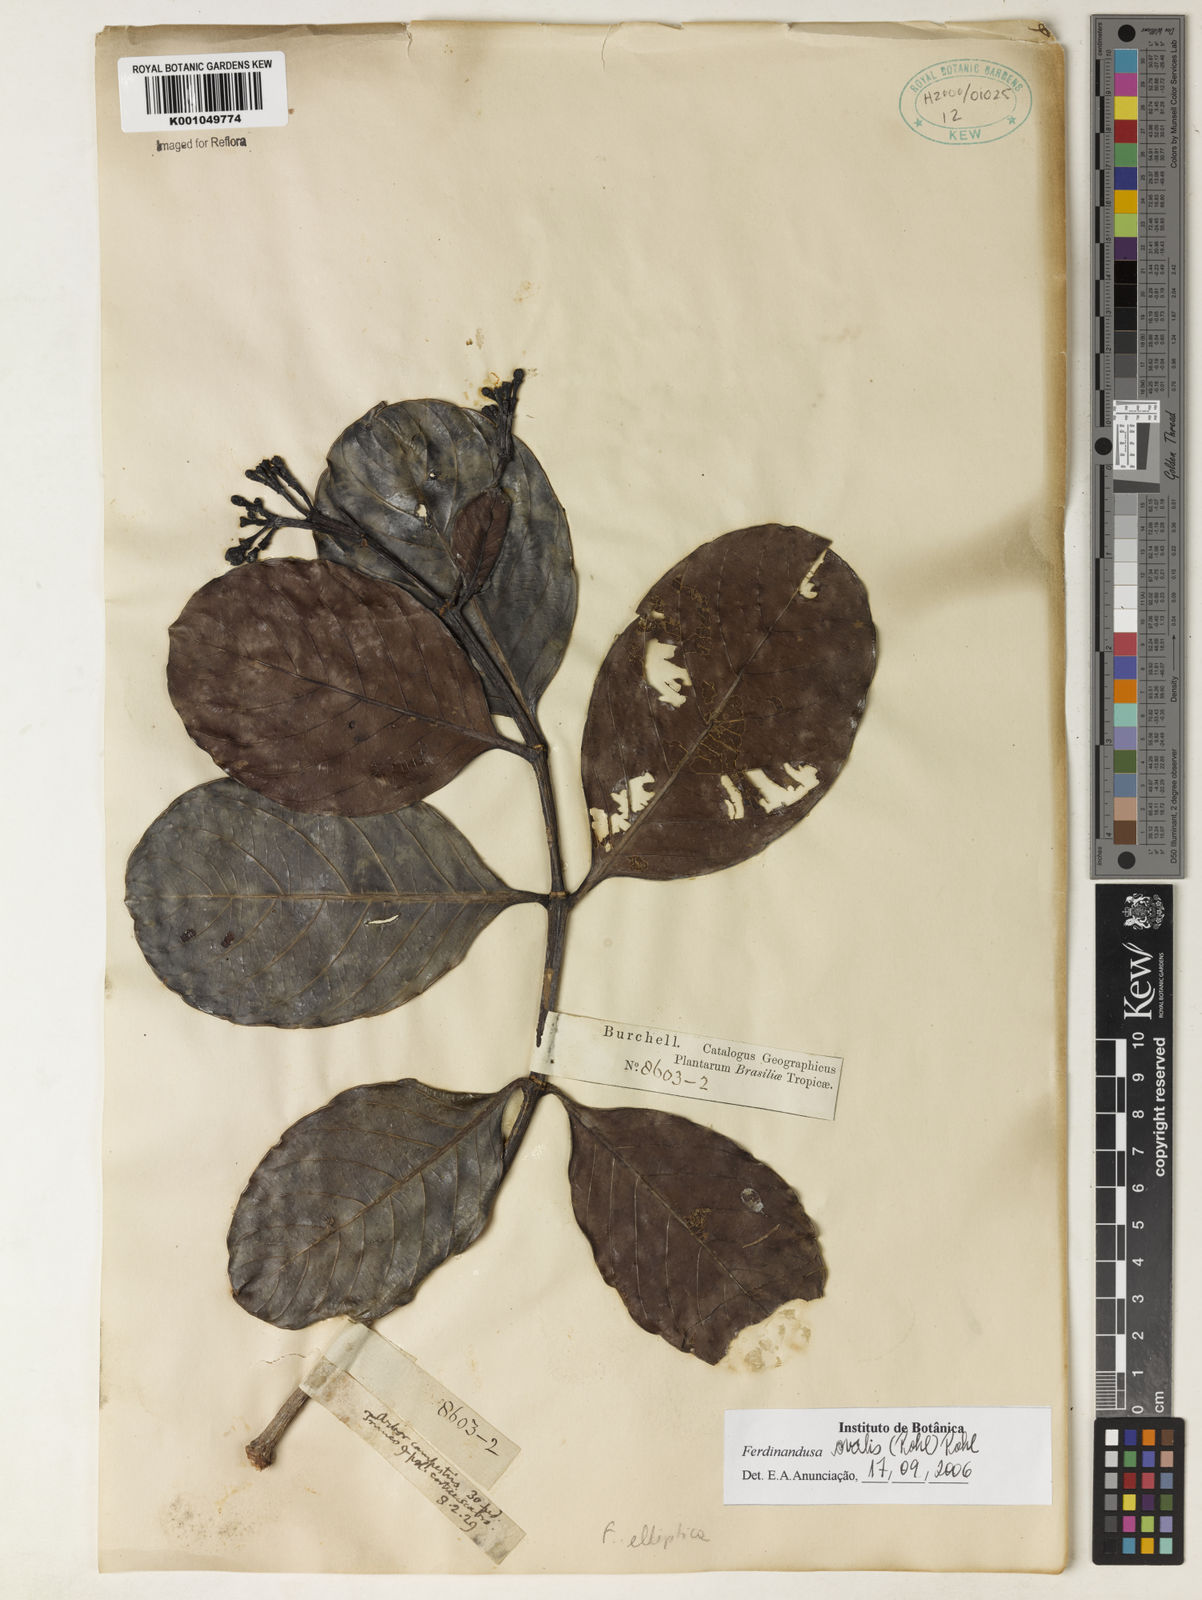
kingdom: Plantae
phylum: Tracheophyta
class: Magnoliopsida
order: Gentianales
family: Rubiaceae
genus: Ferdinandusa
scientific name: Ferdinandusa elliptica
